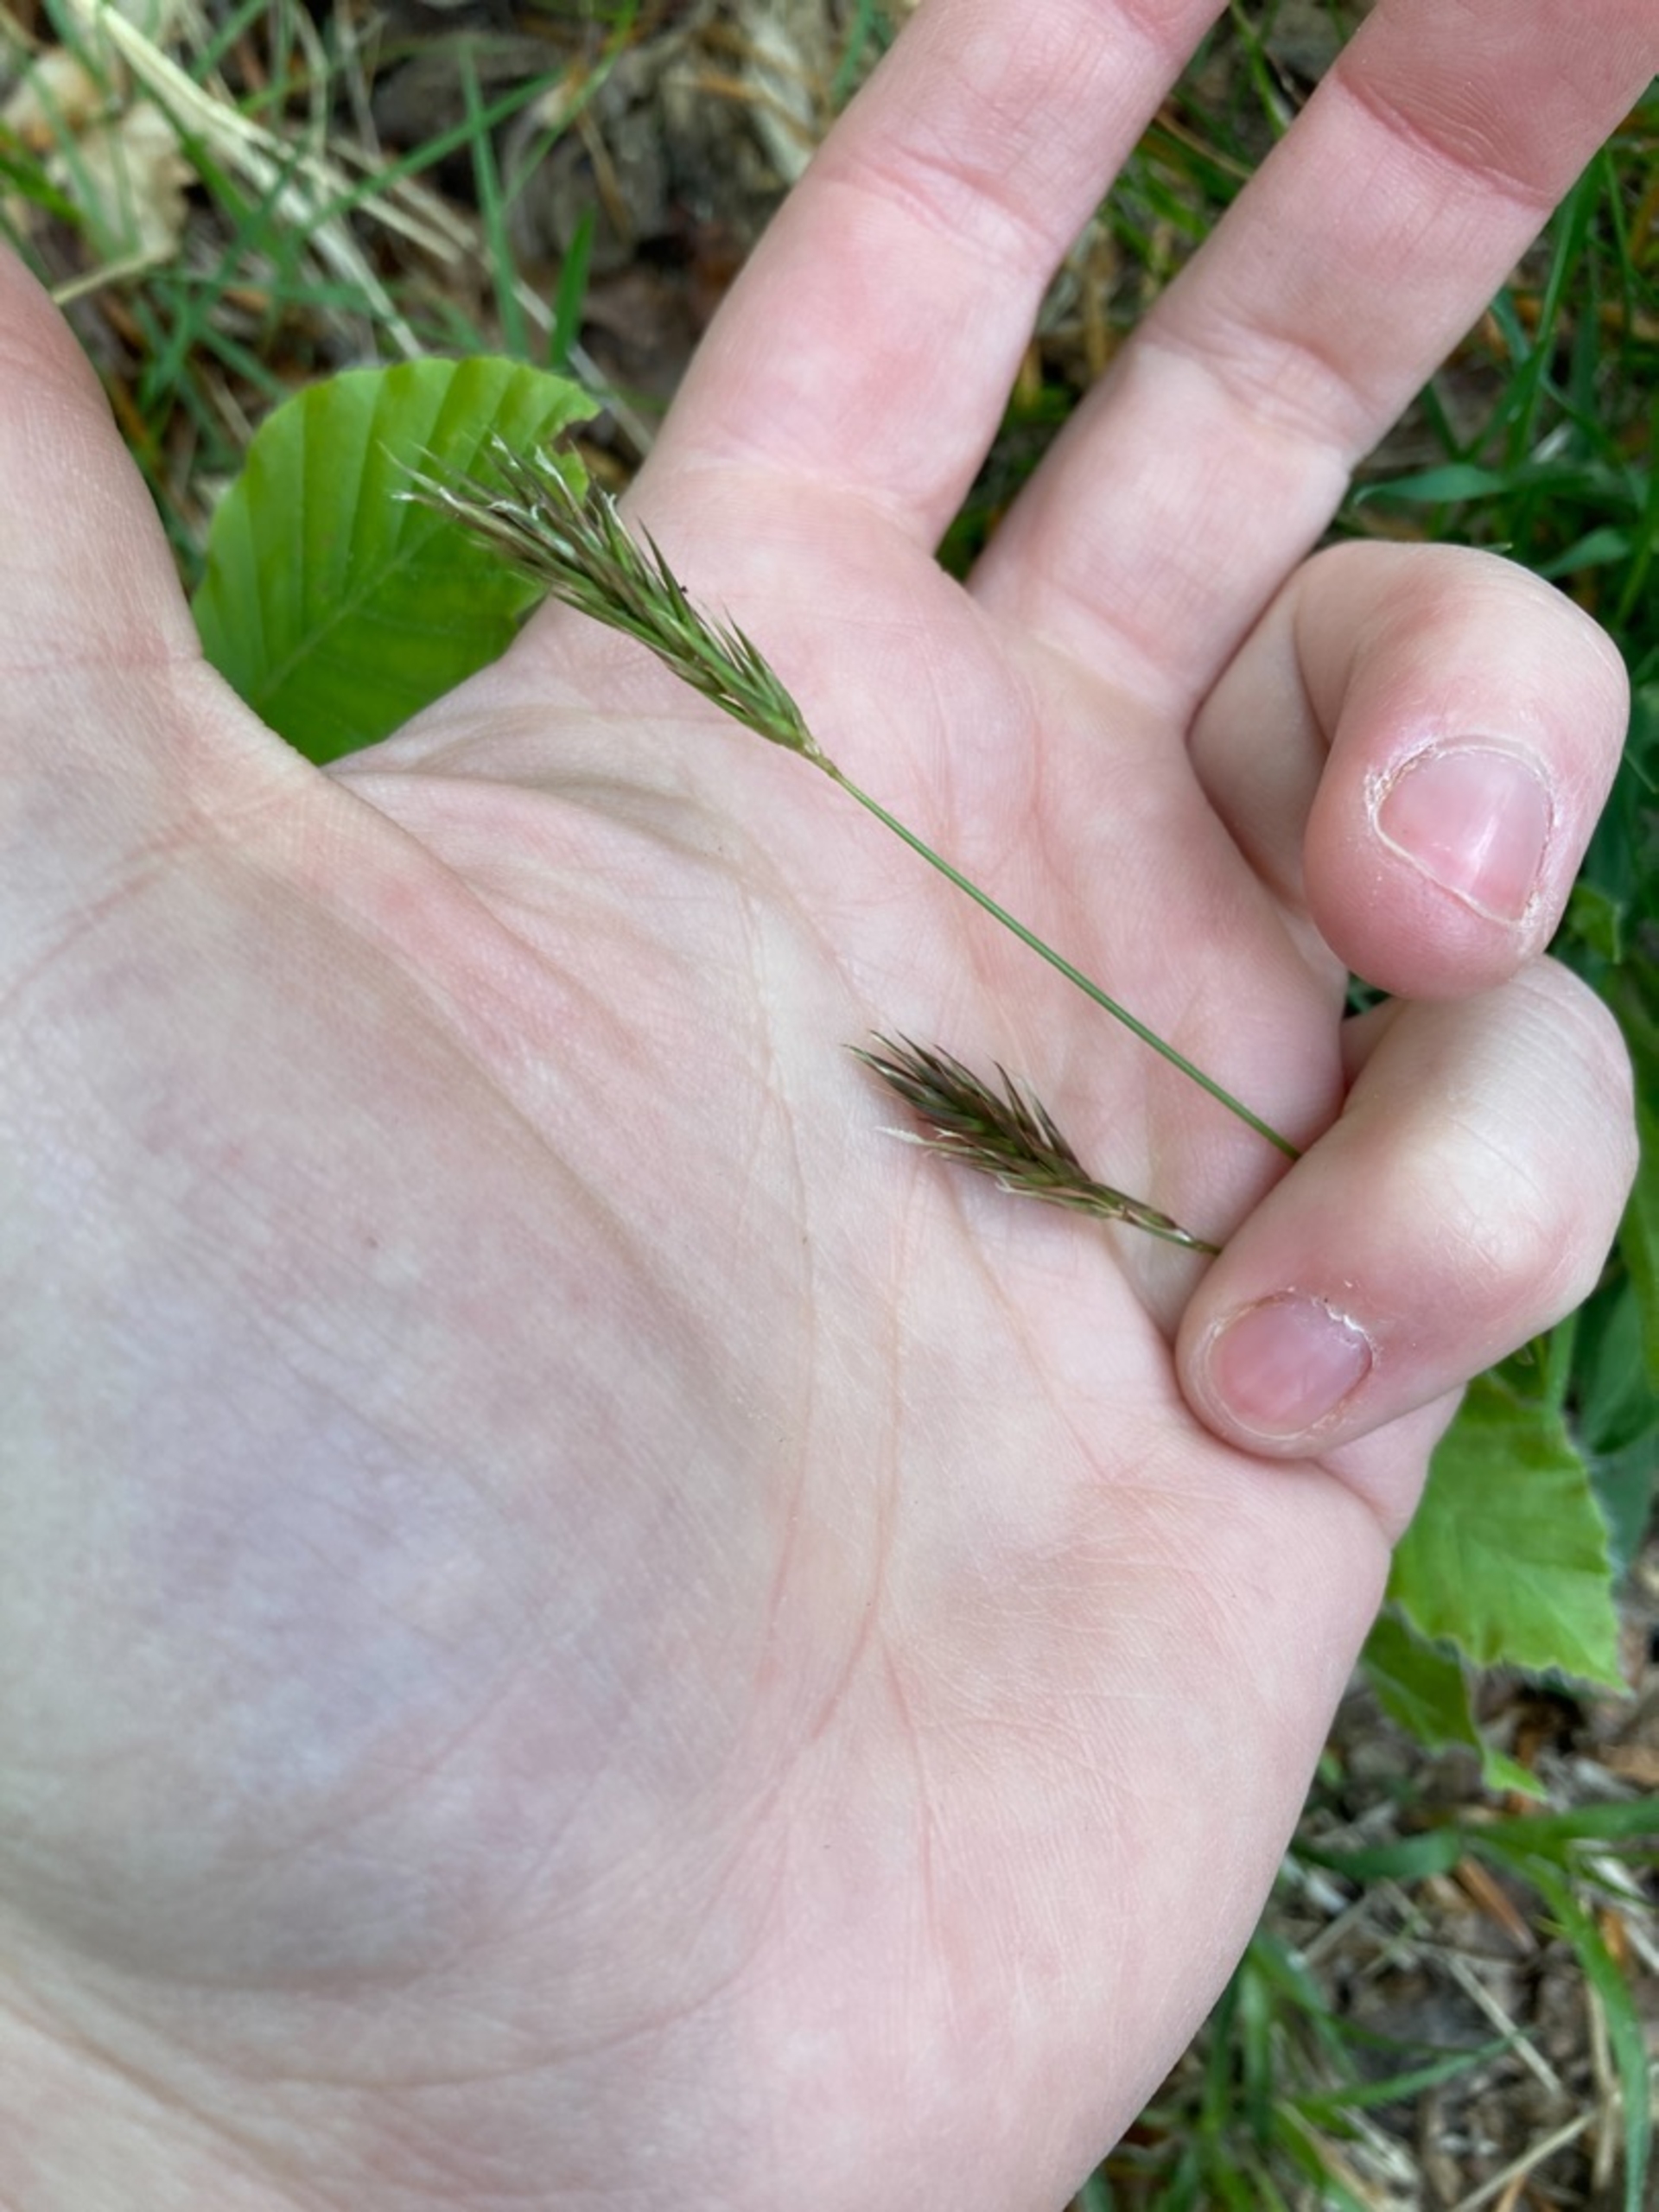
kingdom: Plantae
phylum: Tracheophyta
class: Liliopsida
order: Poales
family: Poaceae
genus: Anthoxanthum
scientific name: Anthoxanthum odoratum
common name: Vellugtende gulaks
